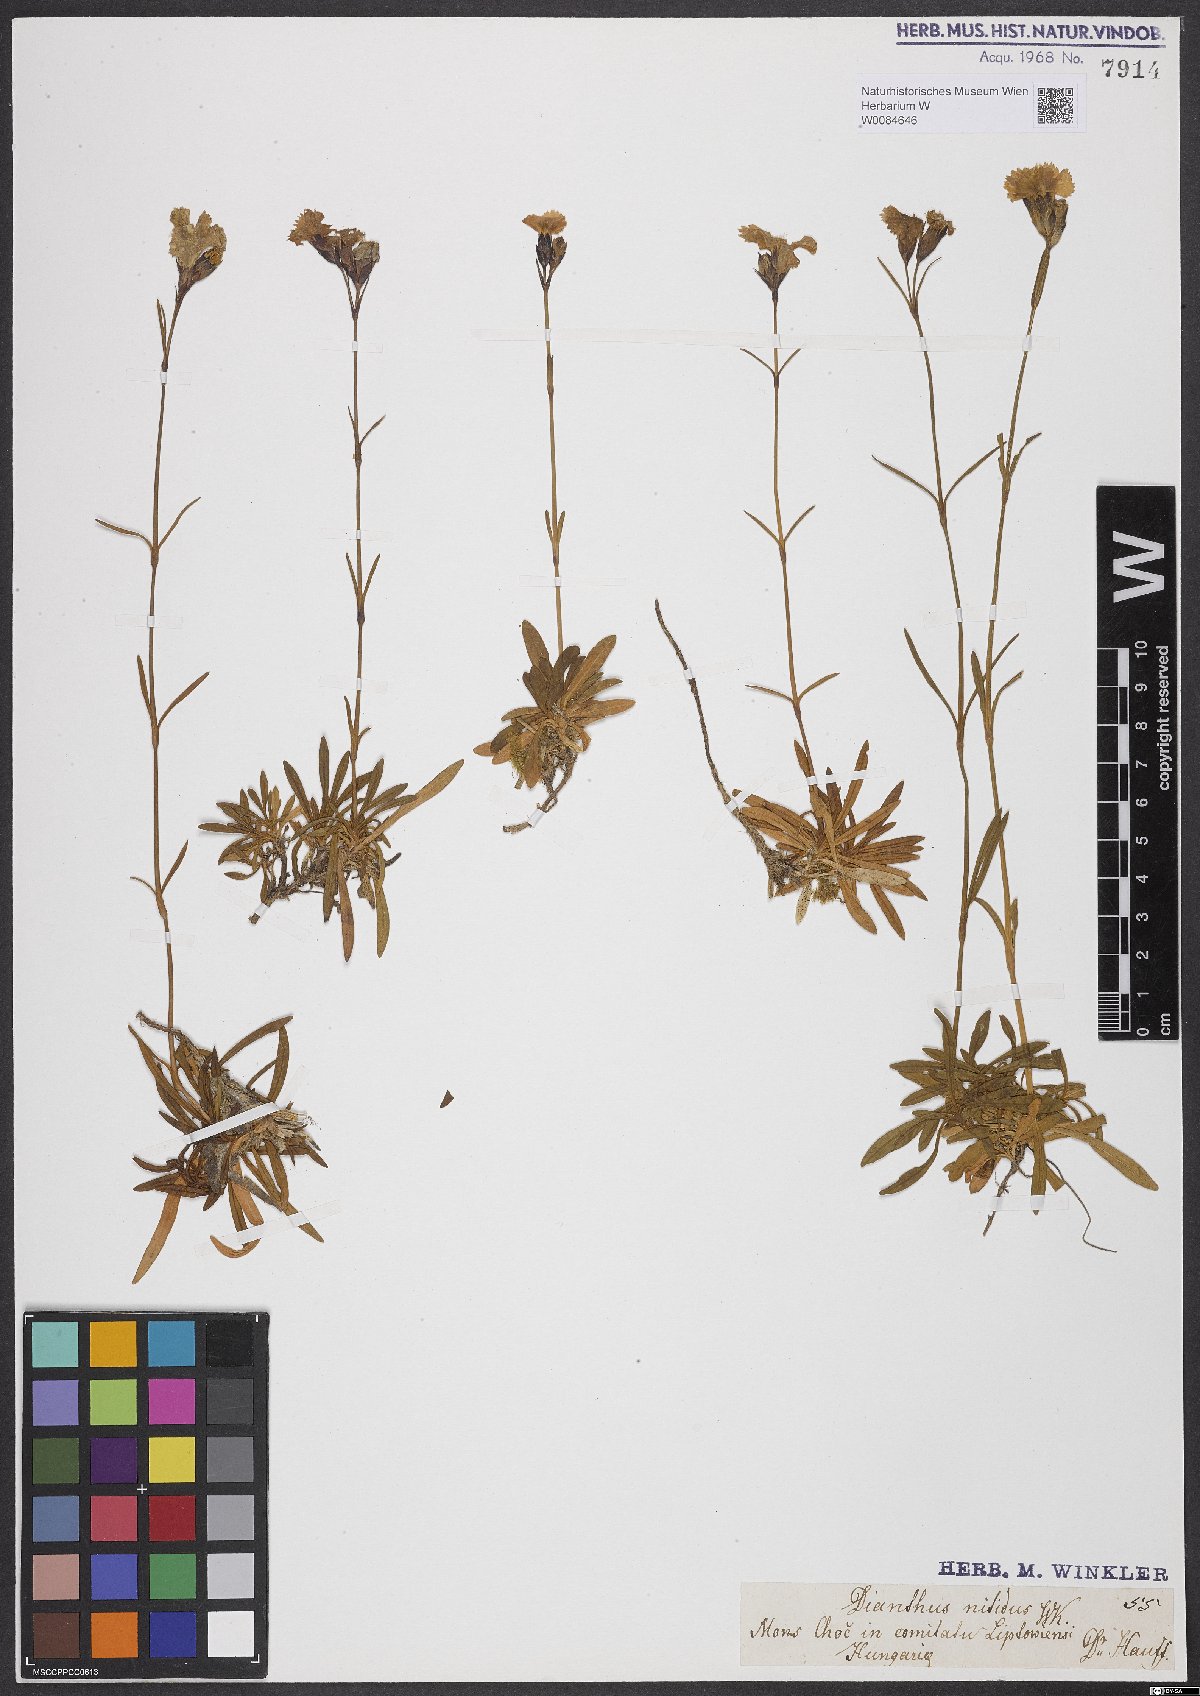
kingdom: Plantae
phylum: Tracheophyta
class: Magnoliopsida
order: Caryophyllales
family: Caryophyllaceae
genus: Dianthus
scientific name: Dianthus nitidus
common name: Carpathian glossy pink
